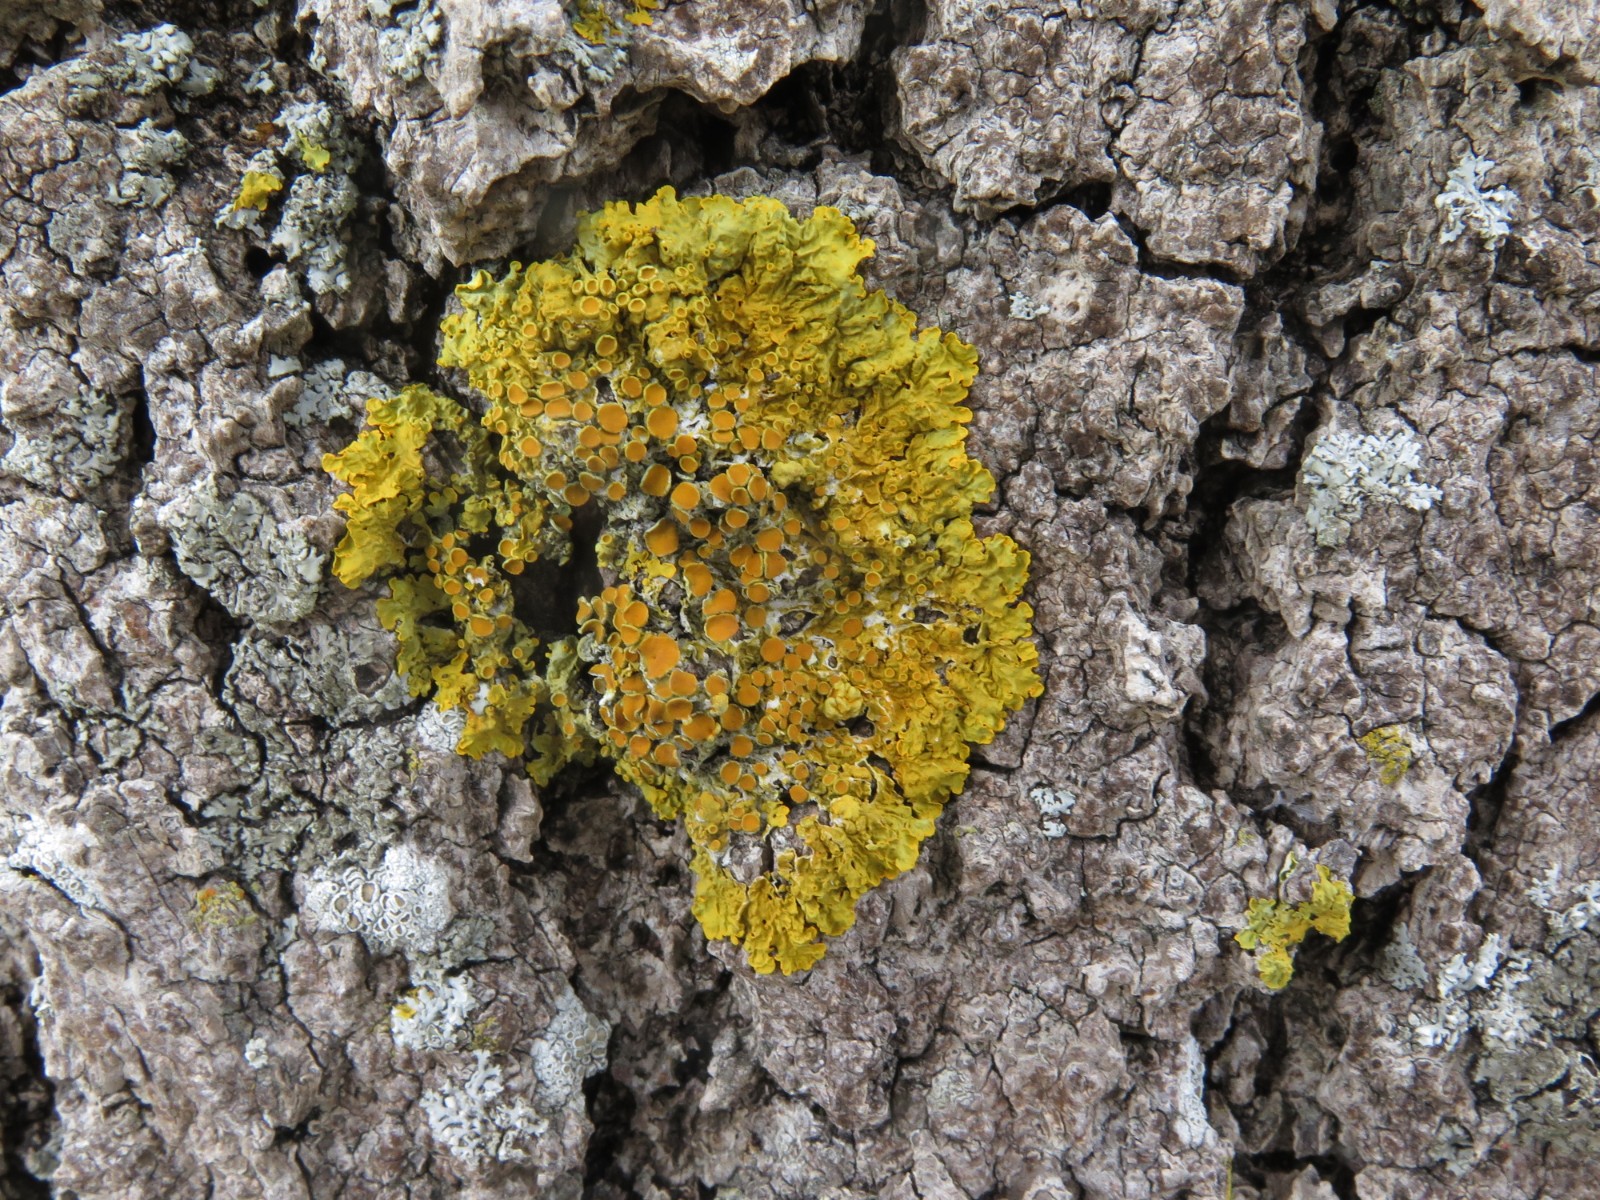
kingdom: Fungi
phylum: Ascomycota
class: Lecanoromycetes
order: Teloschistales
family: Teloschistaceae
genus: Xanthoria
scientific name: Xanthoria parietina
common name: almindelig væggelav
